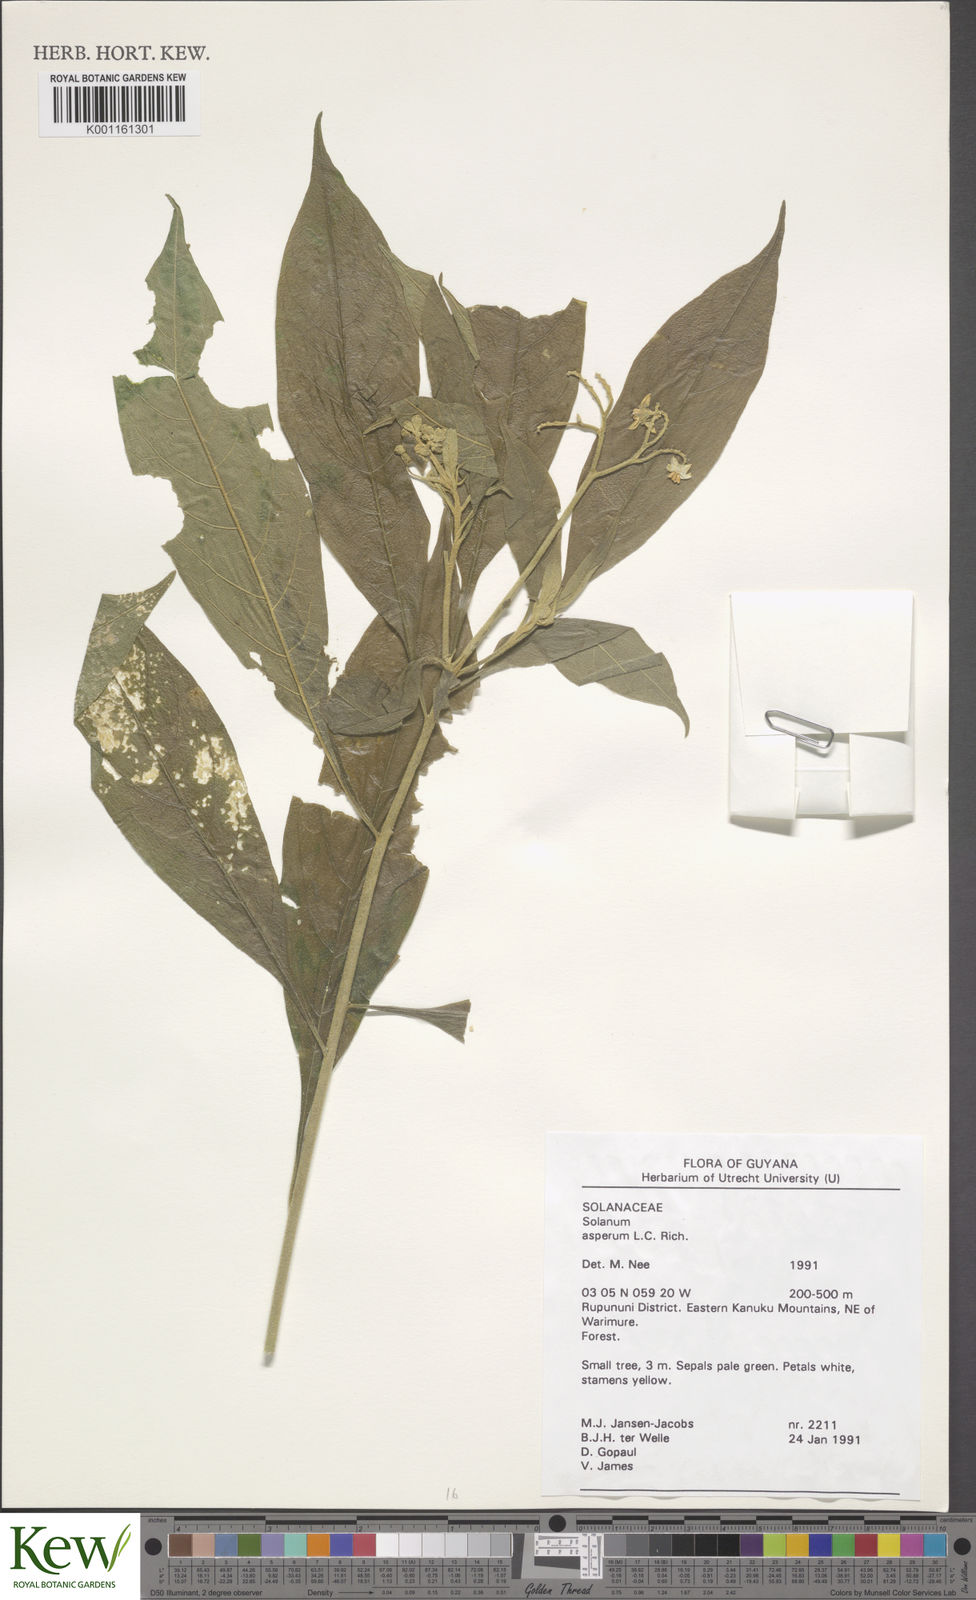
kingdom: Plantae
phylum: Tracheophyta
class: Magnoliopsida
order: Solanales
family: Solanaceae
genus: Solanum
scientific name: Solanum asperum
